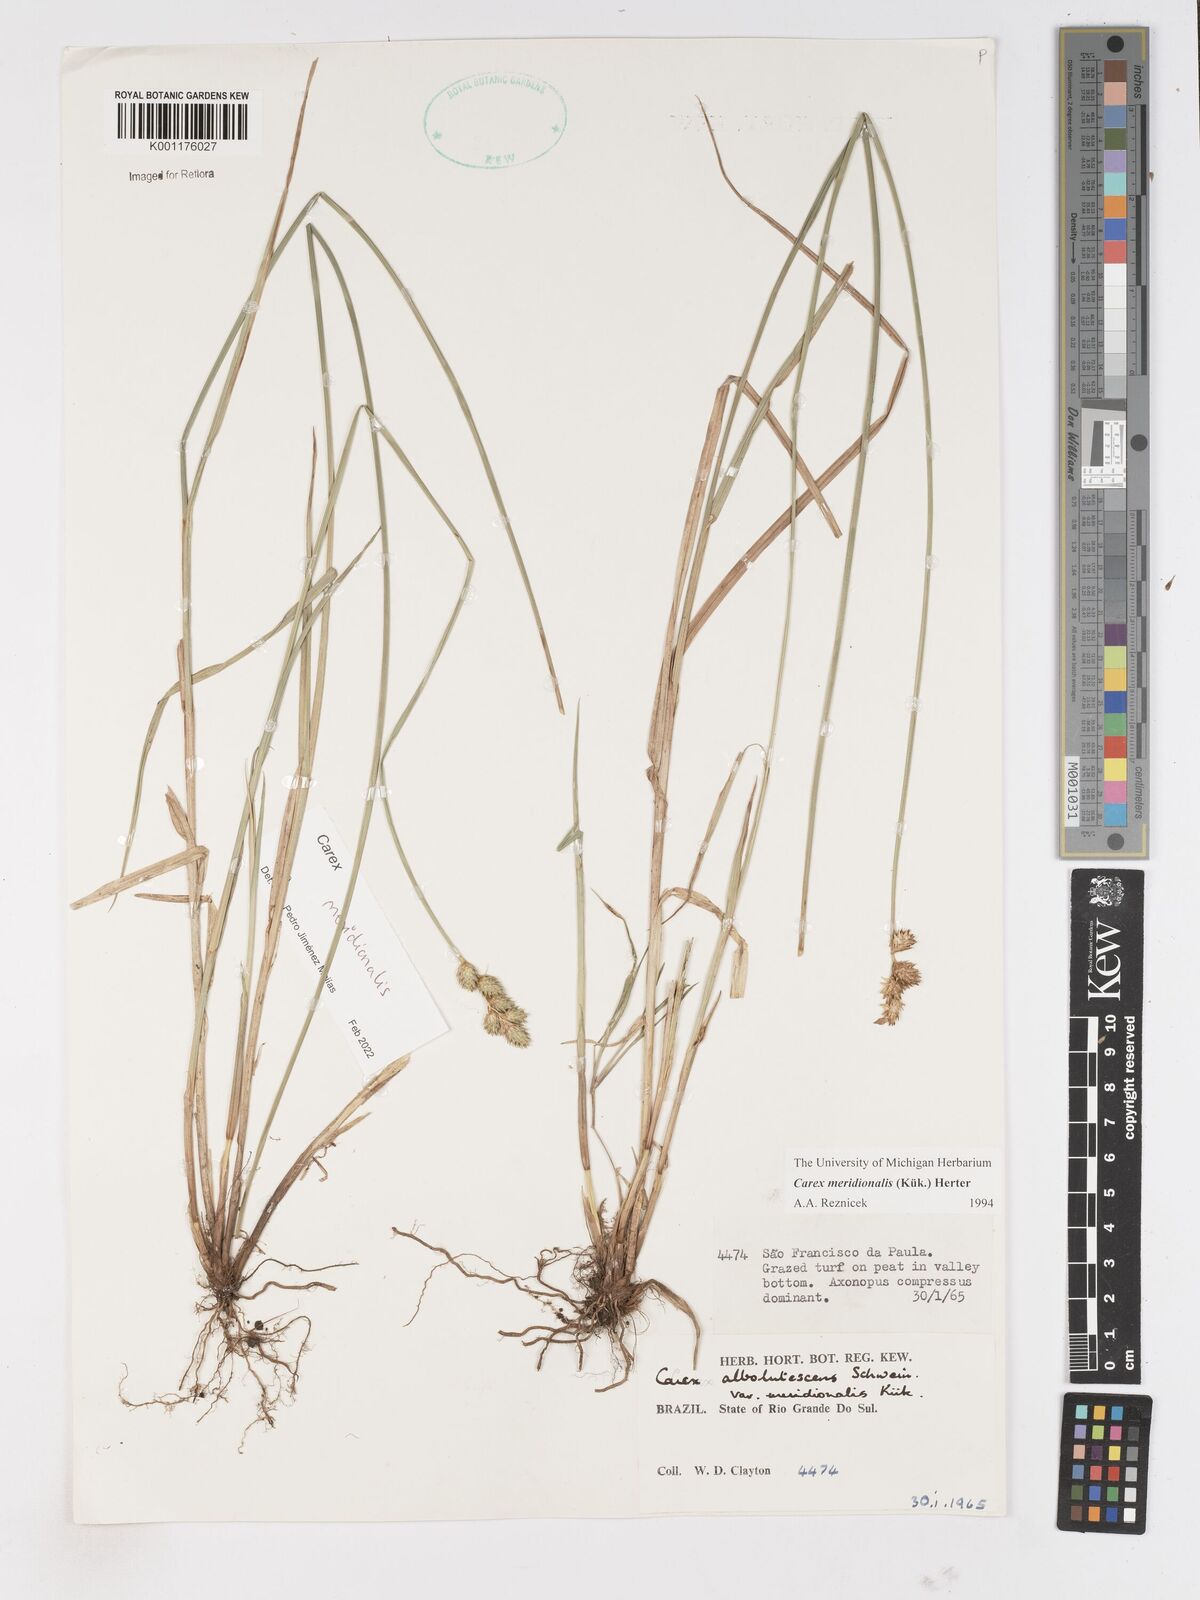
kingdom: Plantae
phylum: Tracheophyta
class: Liliopsida
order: Poales
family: Cyperaceae
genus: Carex
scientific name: Carex meridionalis
